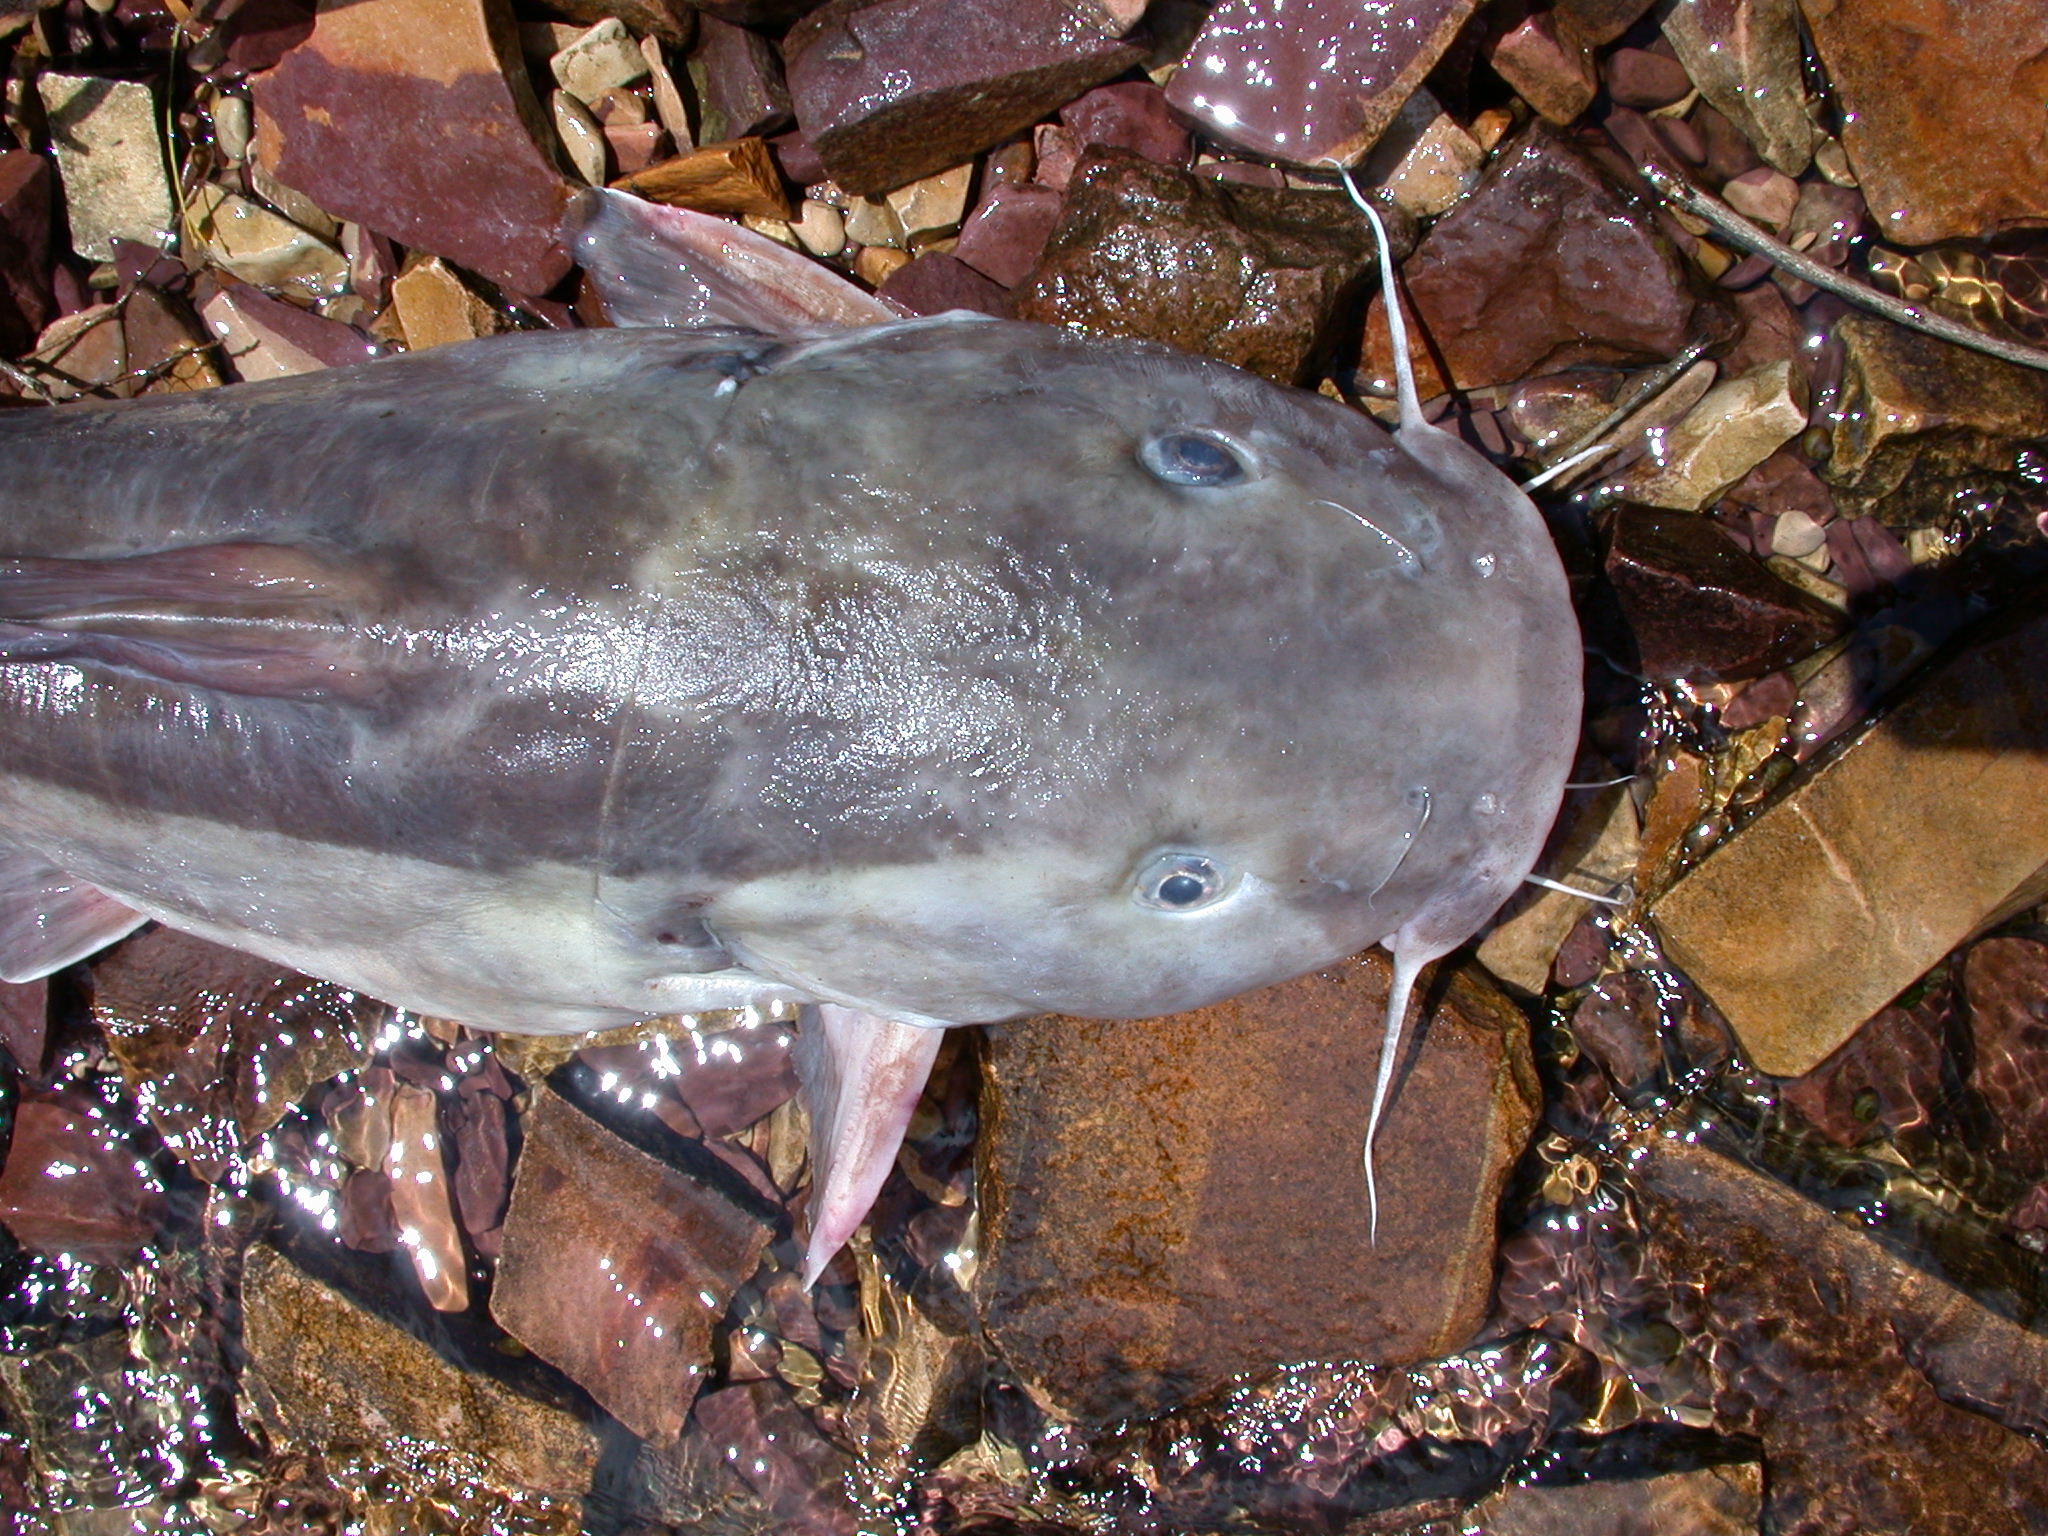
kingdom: Animalia
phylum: Chordata
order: Siluriformes
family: Claroteidae
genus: Chrysichthys
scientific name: Chrysichthys brachynema
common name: Kibonde
